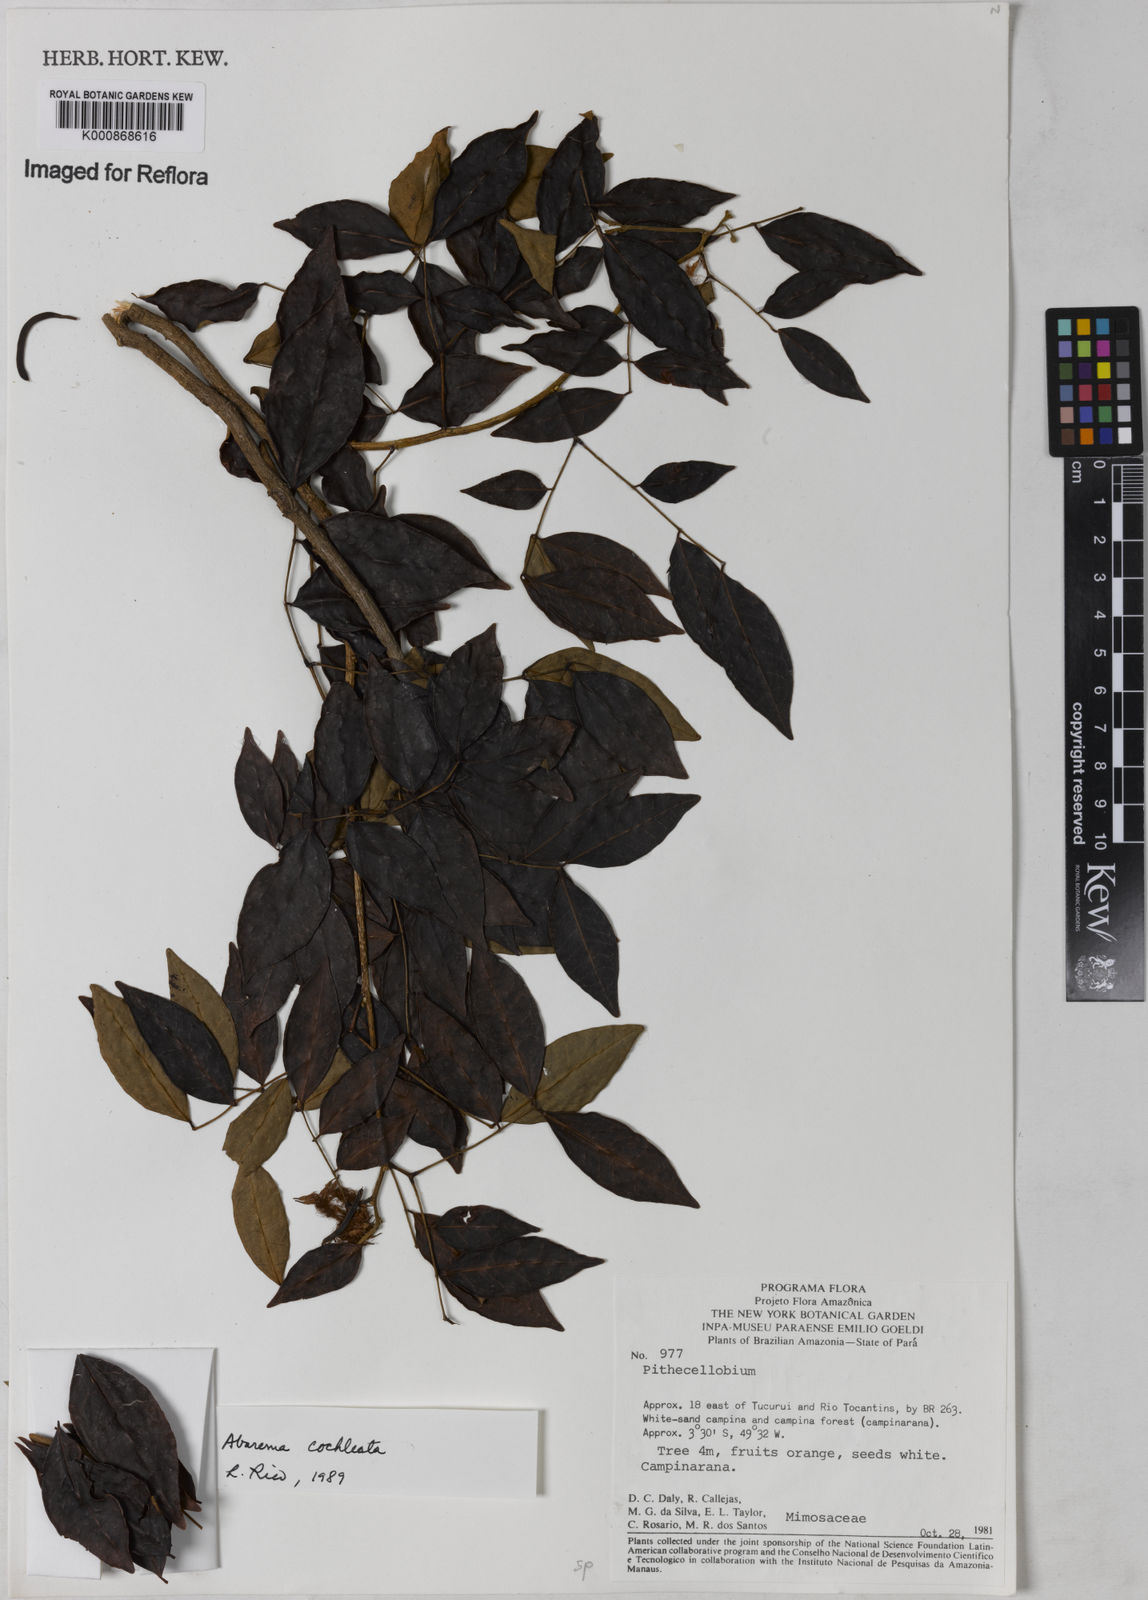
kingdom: Plantae
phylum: Tracheophyta
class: Magnoliopsida
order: Fabales
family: Fabaceae
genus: Jupunba
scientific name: Jupunba cochleata
